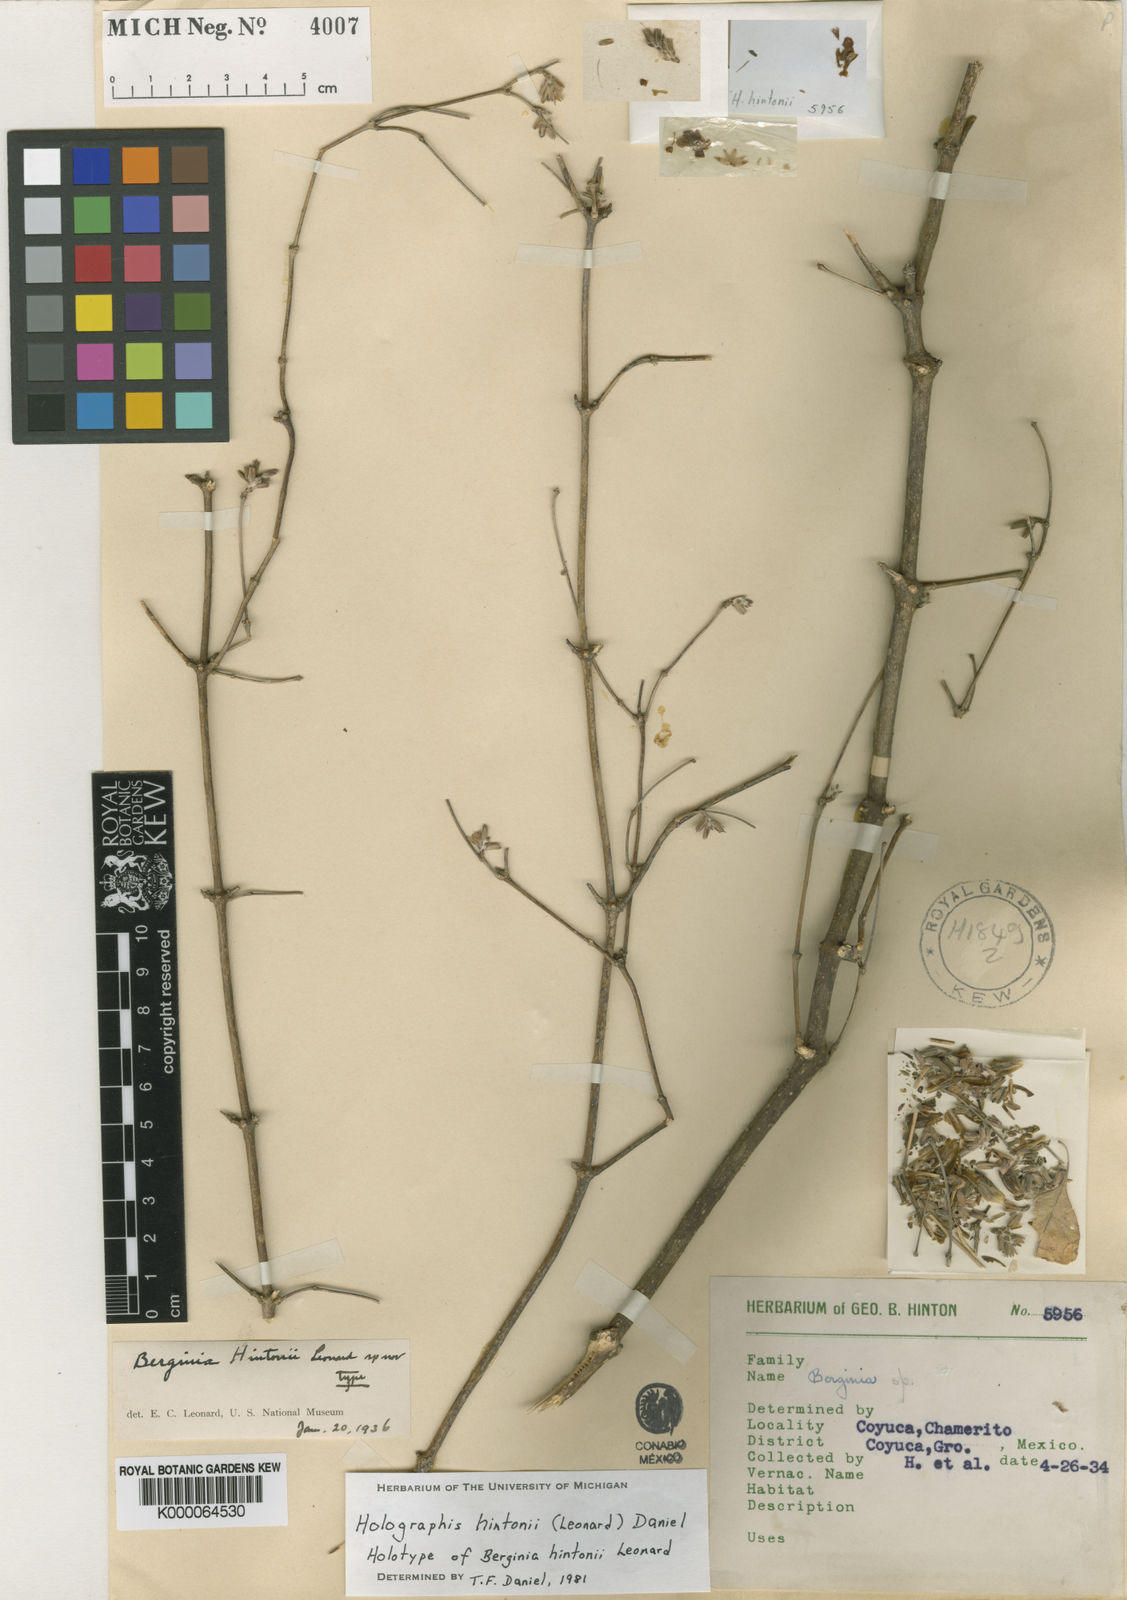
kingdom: Plantae
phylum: Tracheophyta
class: Magnoliopsida
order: Lamiales
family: Acanthaceae
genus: Holographis
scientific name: Holographis hintonii
